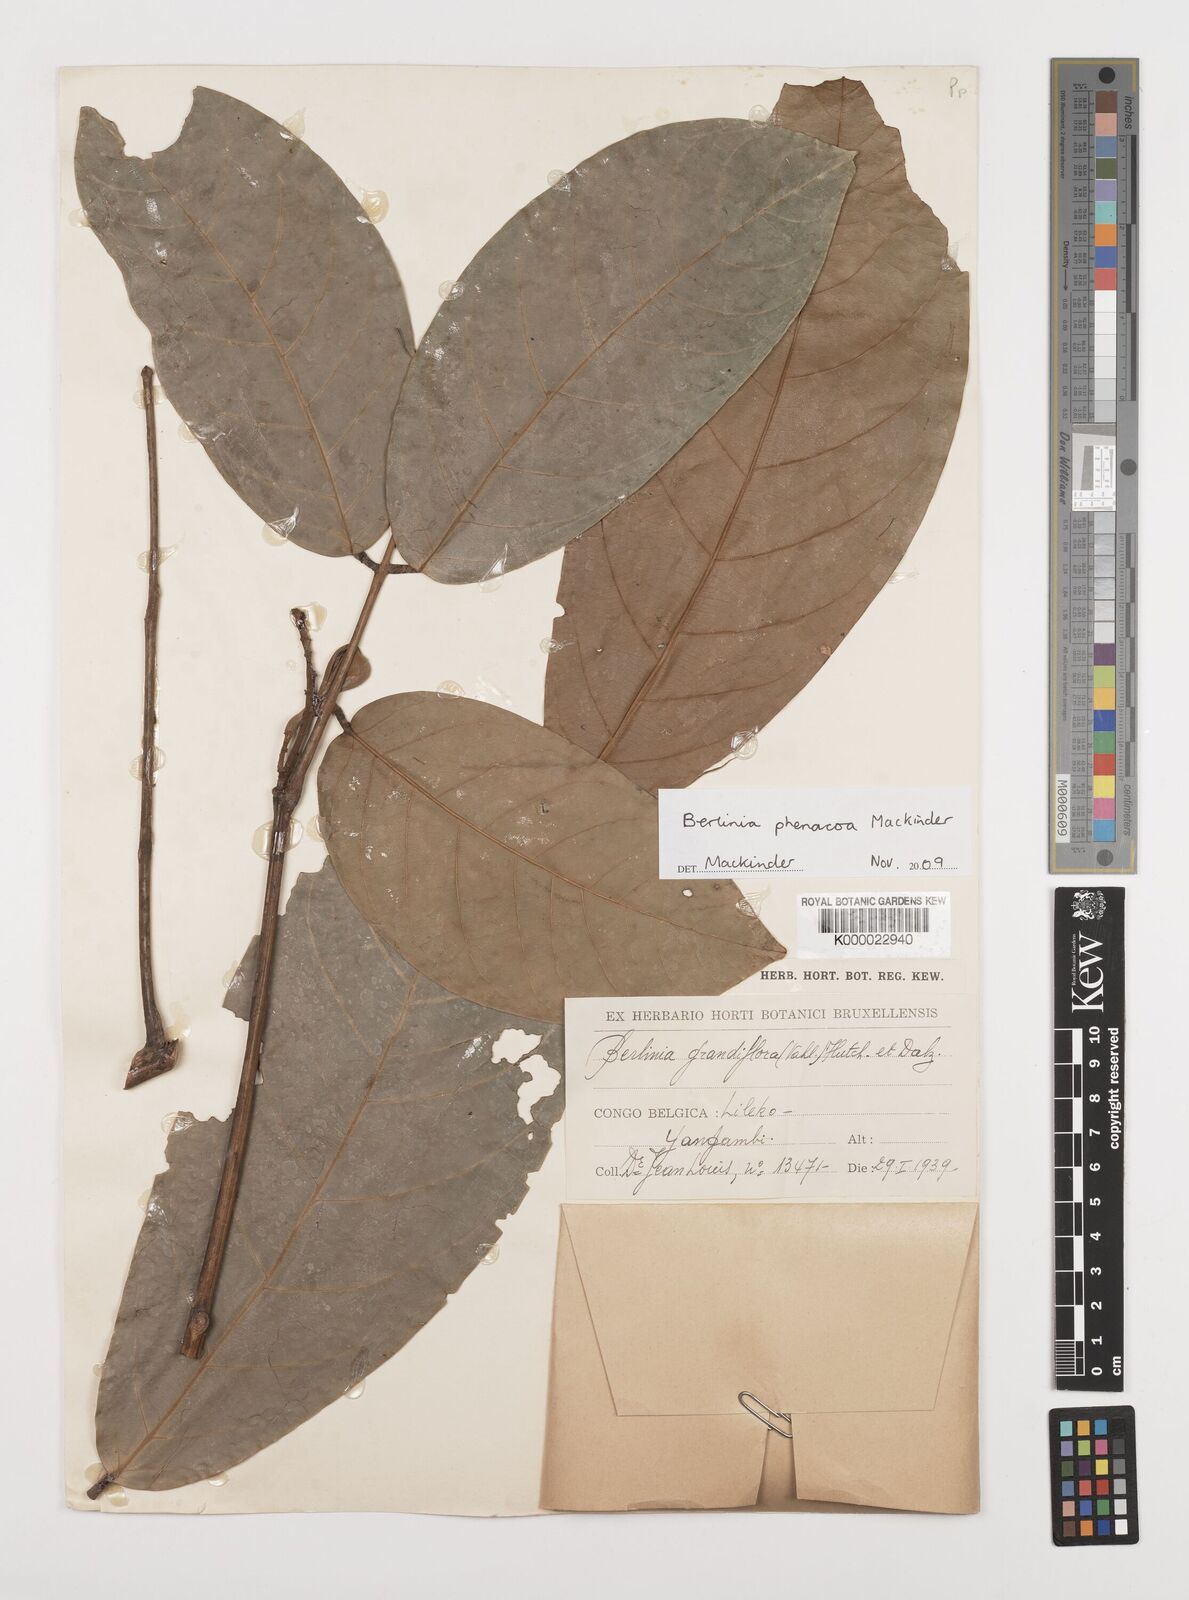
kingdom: Plantae
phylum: Tracheophyta
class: Magnoliopsida
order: Fabales
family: Fabaceae
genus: Berlinia
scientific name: Berlinia phenacoa
